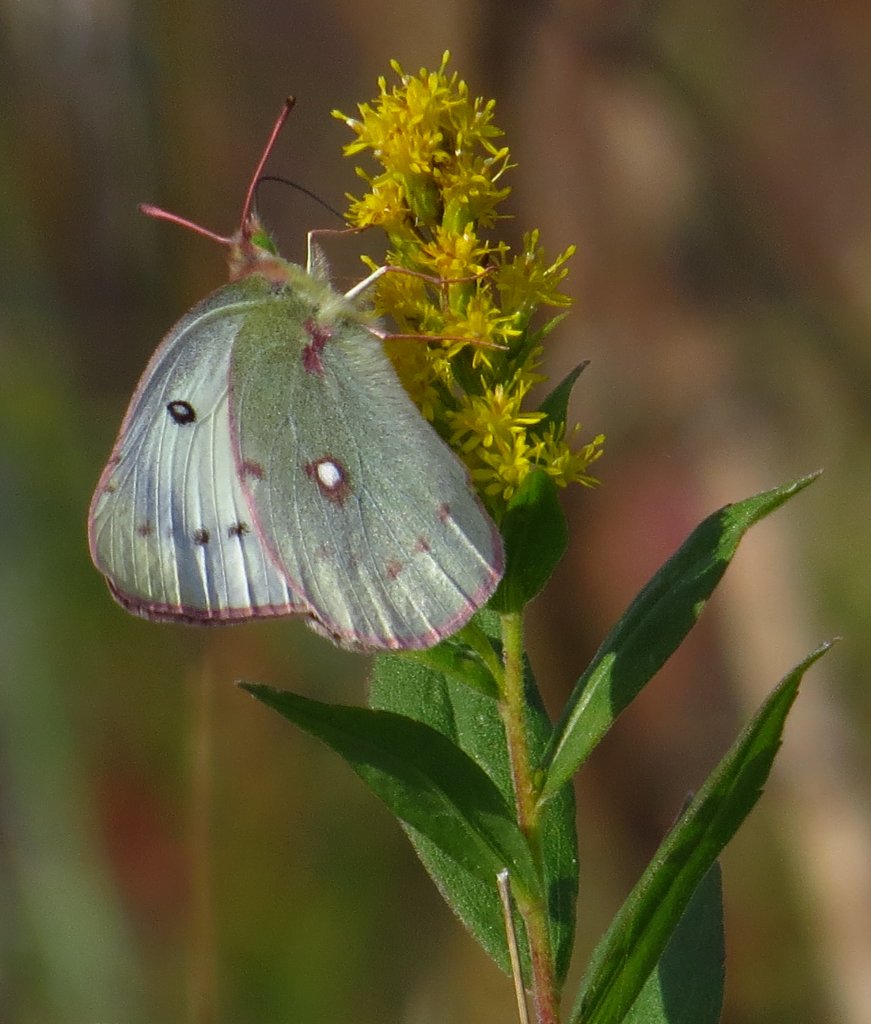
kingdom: Animalia
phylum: Arthropoda
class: Insecta
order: Lepidoptera
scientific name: Lepidoptera
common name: Butterflies
